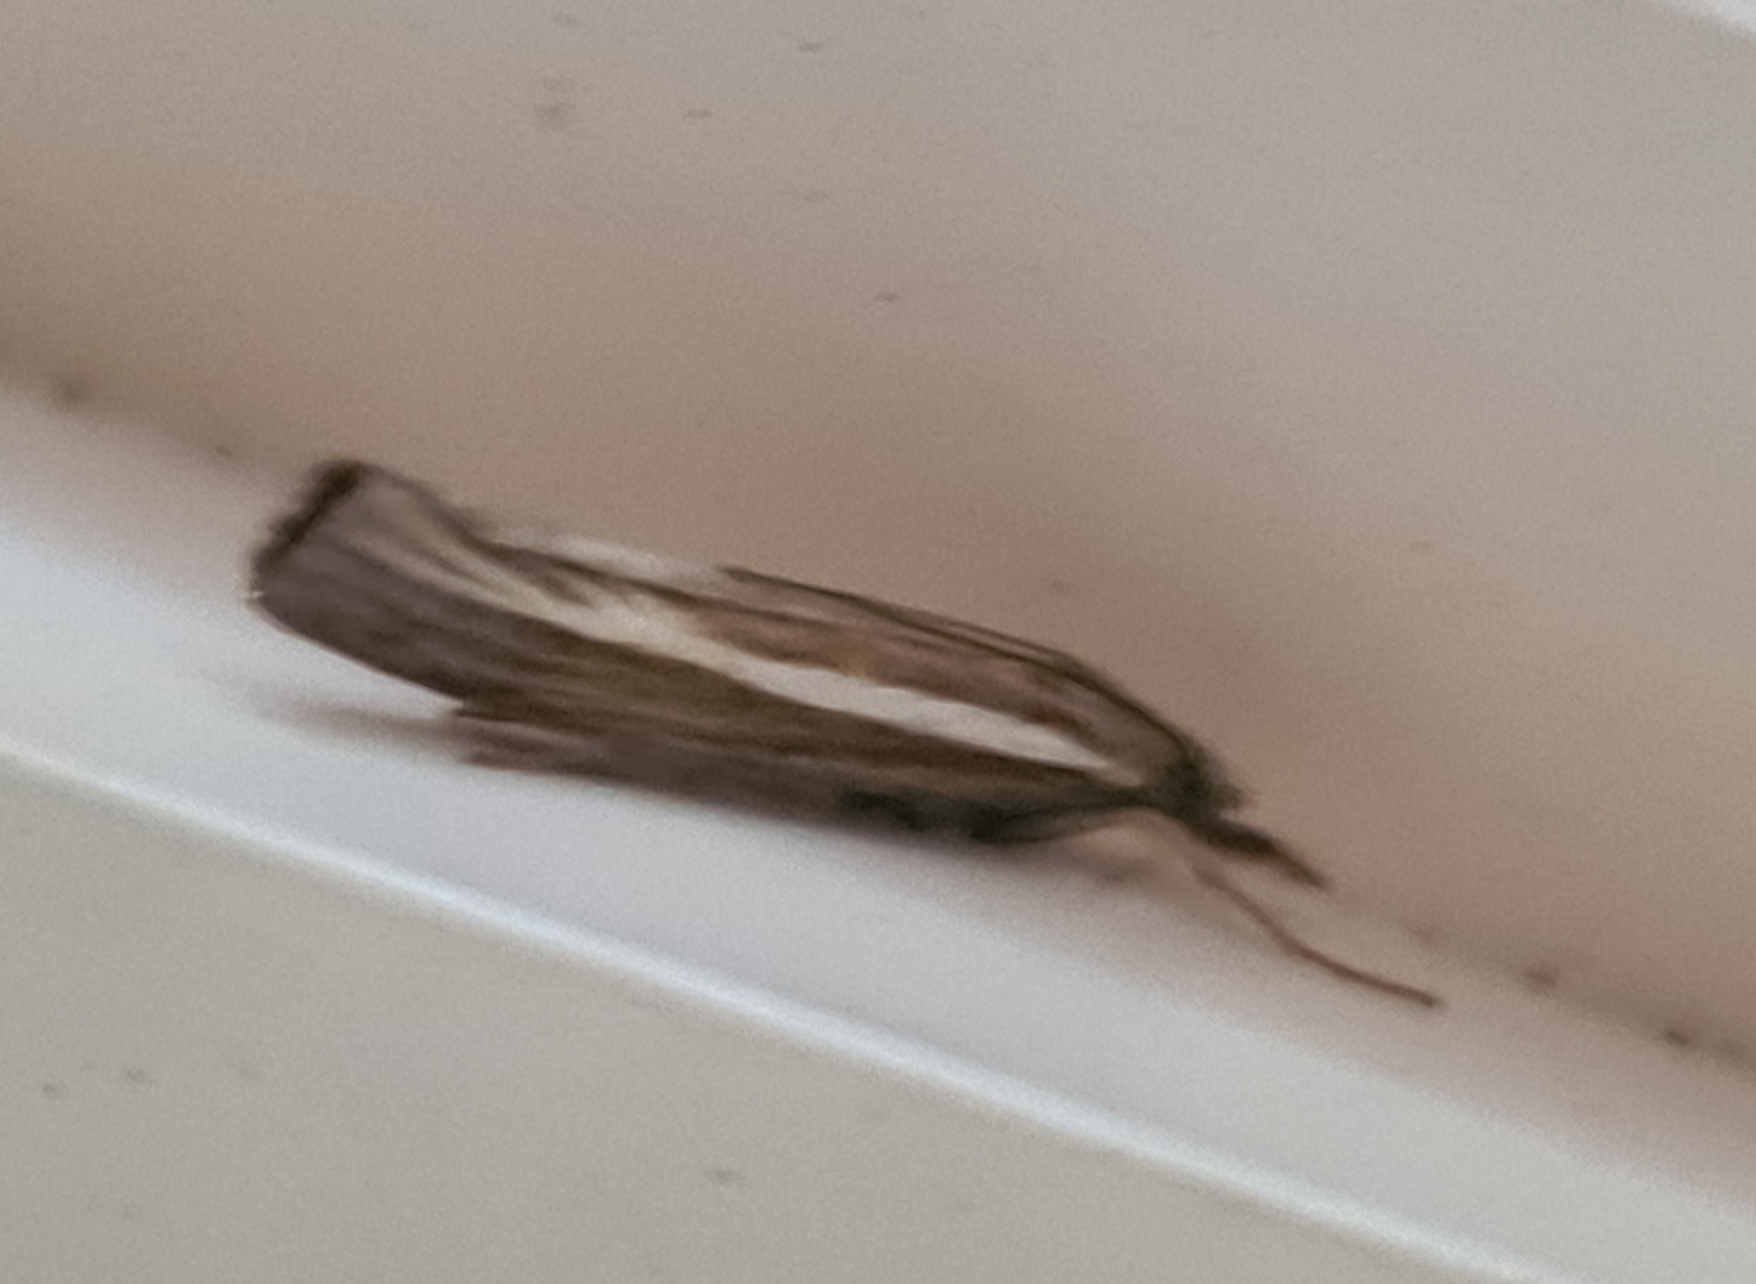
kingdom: Animalia
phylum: Arthropoda
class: Insecta
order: Lepidoptera
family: Crambidae
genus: Agriphila
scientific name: Agriphila tristellus
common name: Okkergult græsmøl
